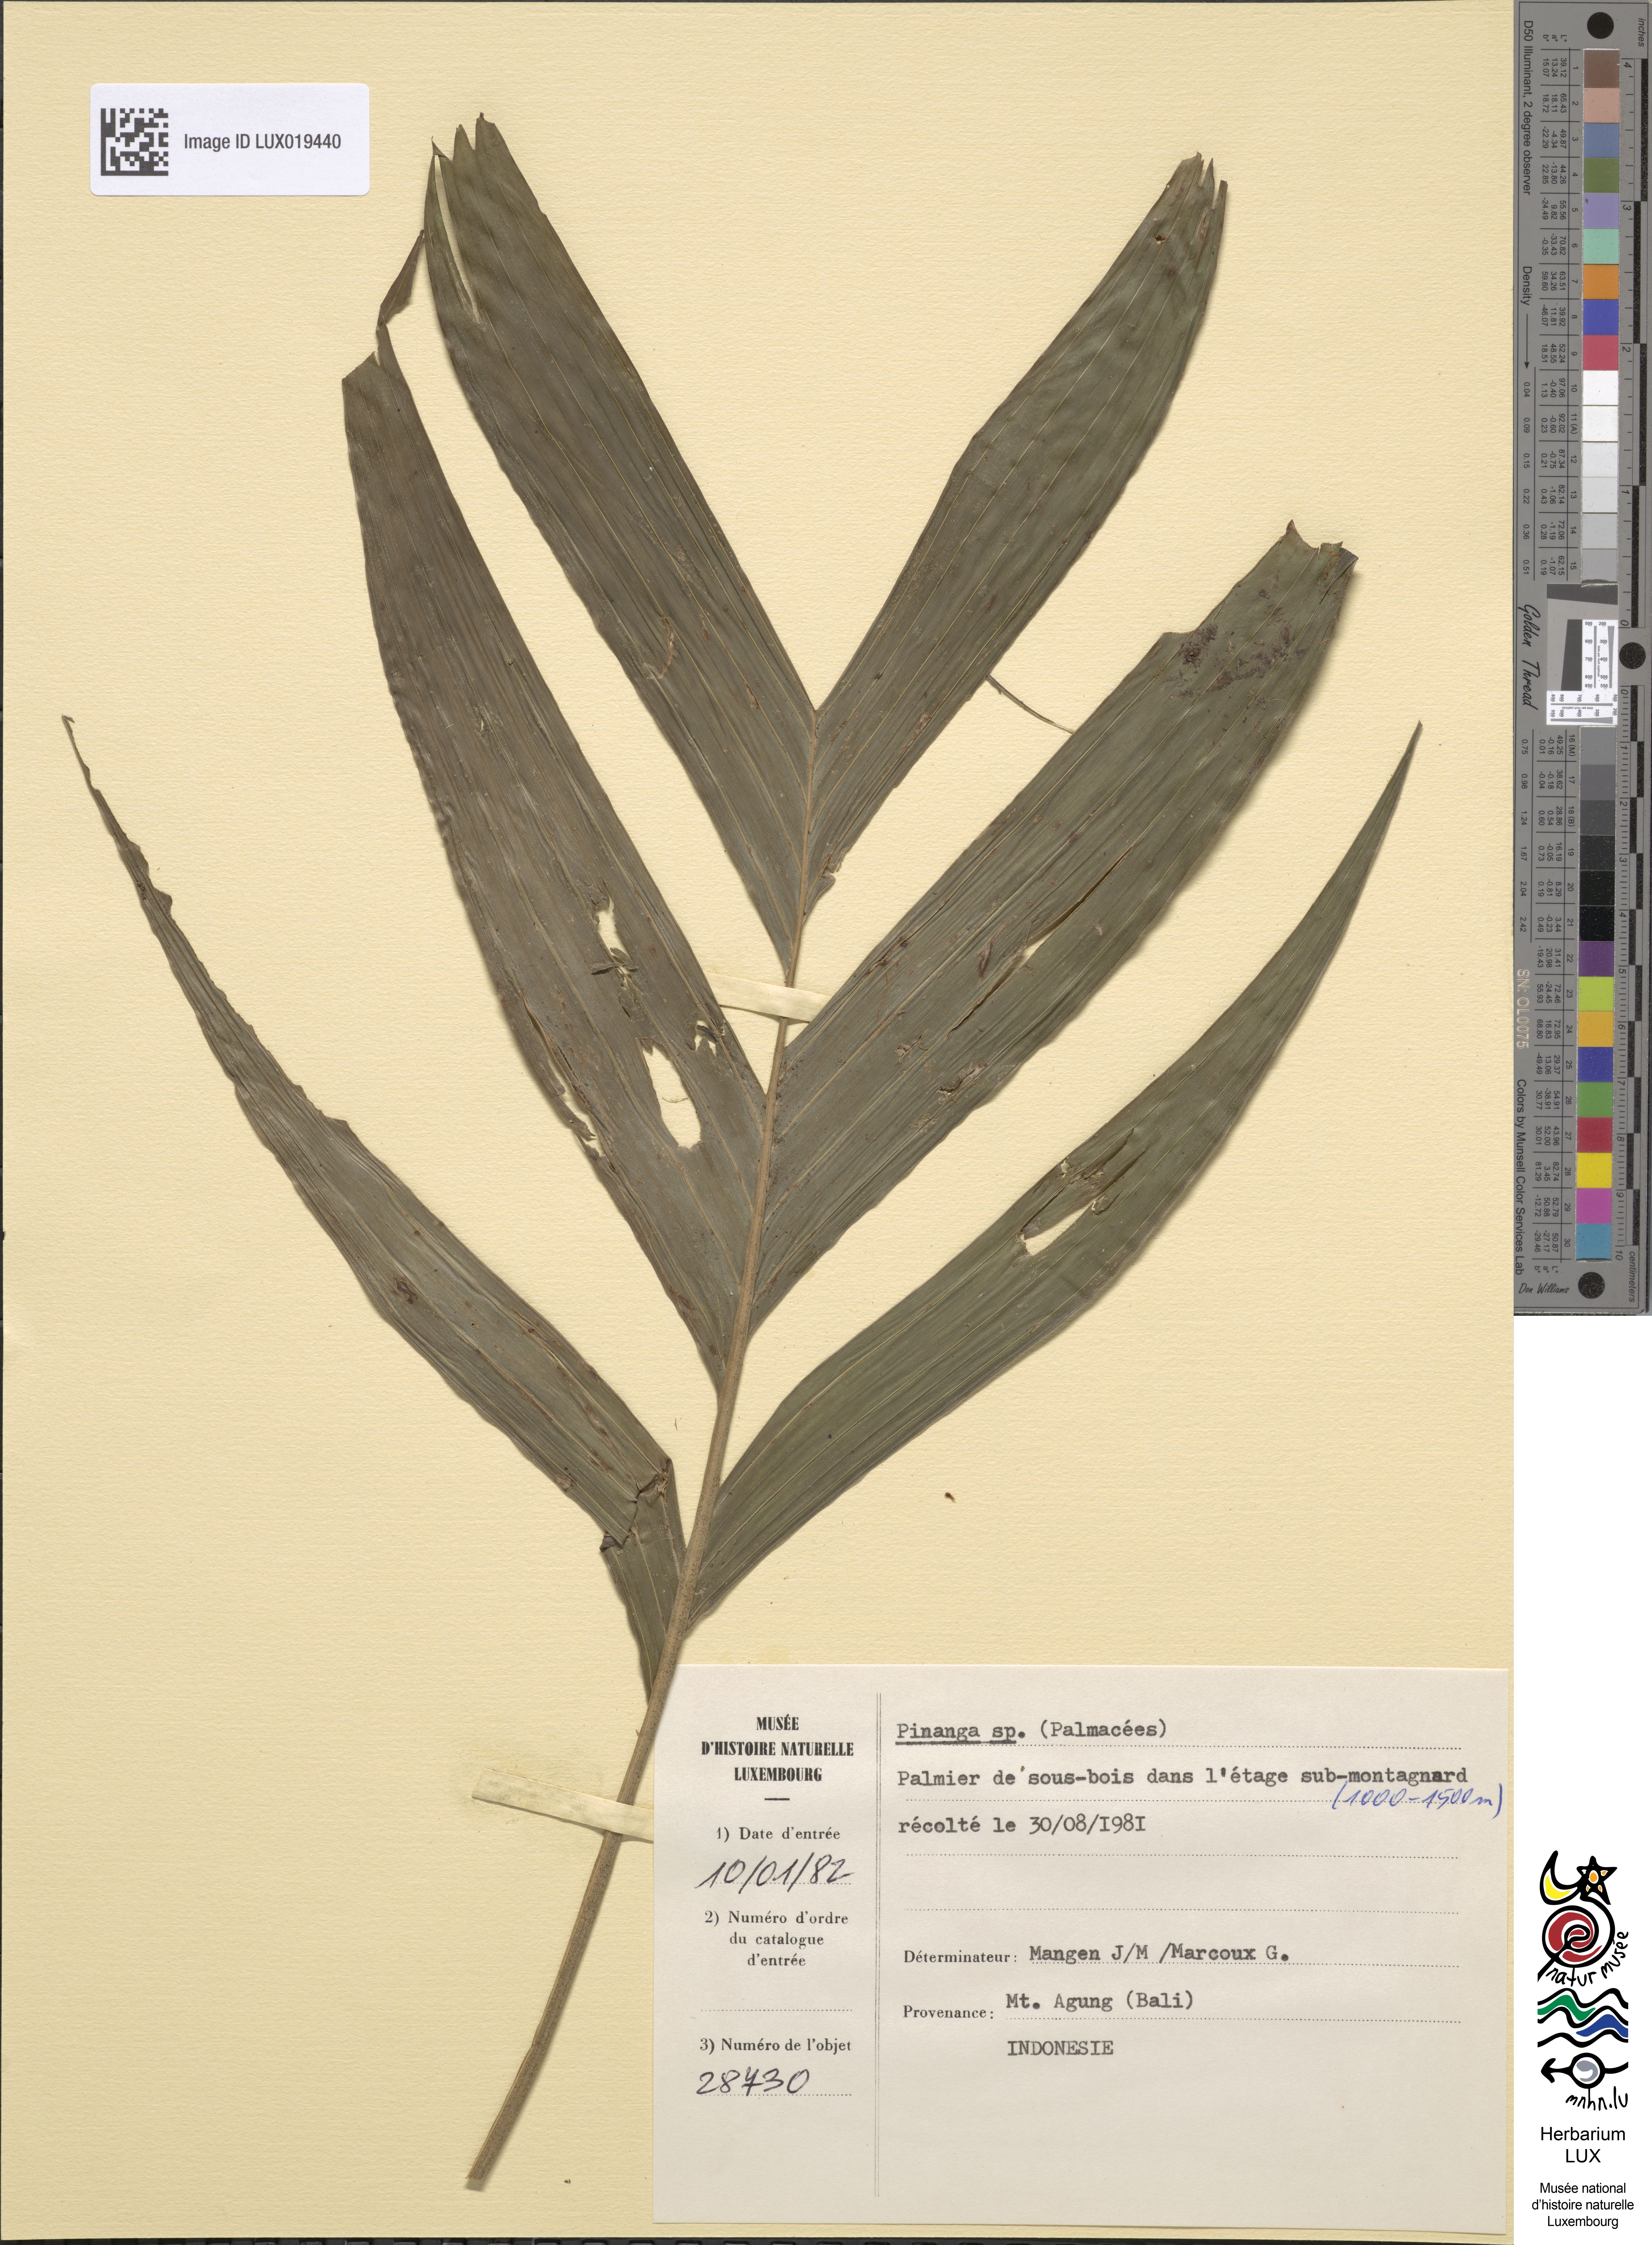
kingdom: Plantae
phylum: Tracheophyta
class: Liliopsida
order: Arecales
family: Arecaceae
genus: Pinanga
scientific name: Pinanga
